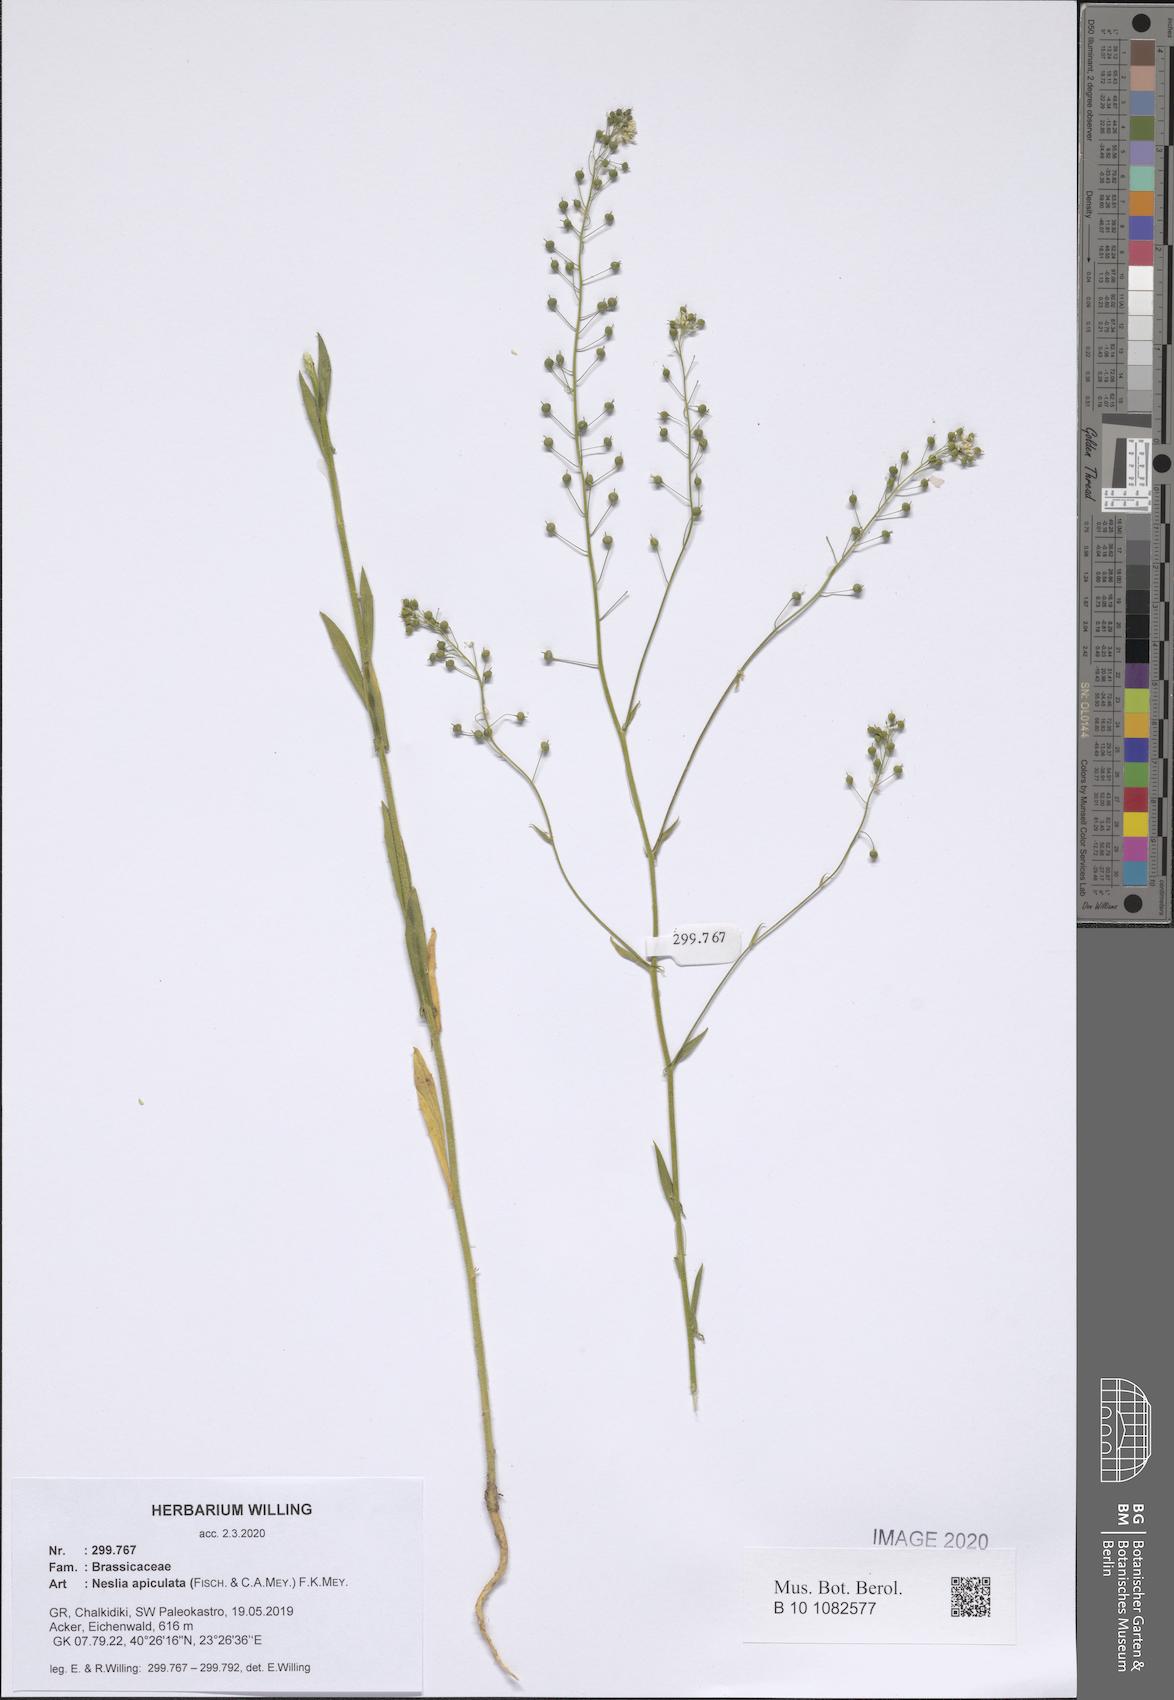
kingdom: Plantae
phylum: Tracheophyta
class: Magnoliopsida
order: Brassicales
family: Brassicaceae
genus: Neslia
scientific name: Neslia paniculata
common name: Ball mustard
